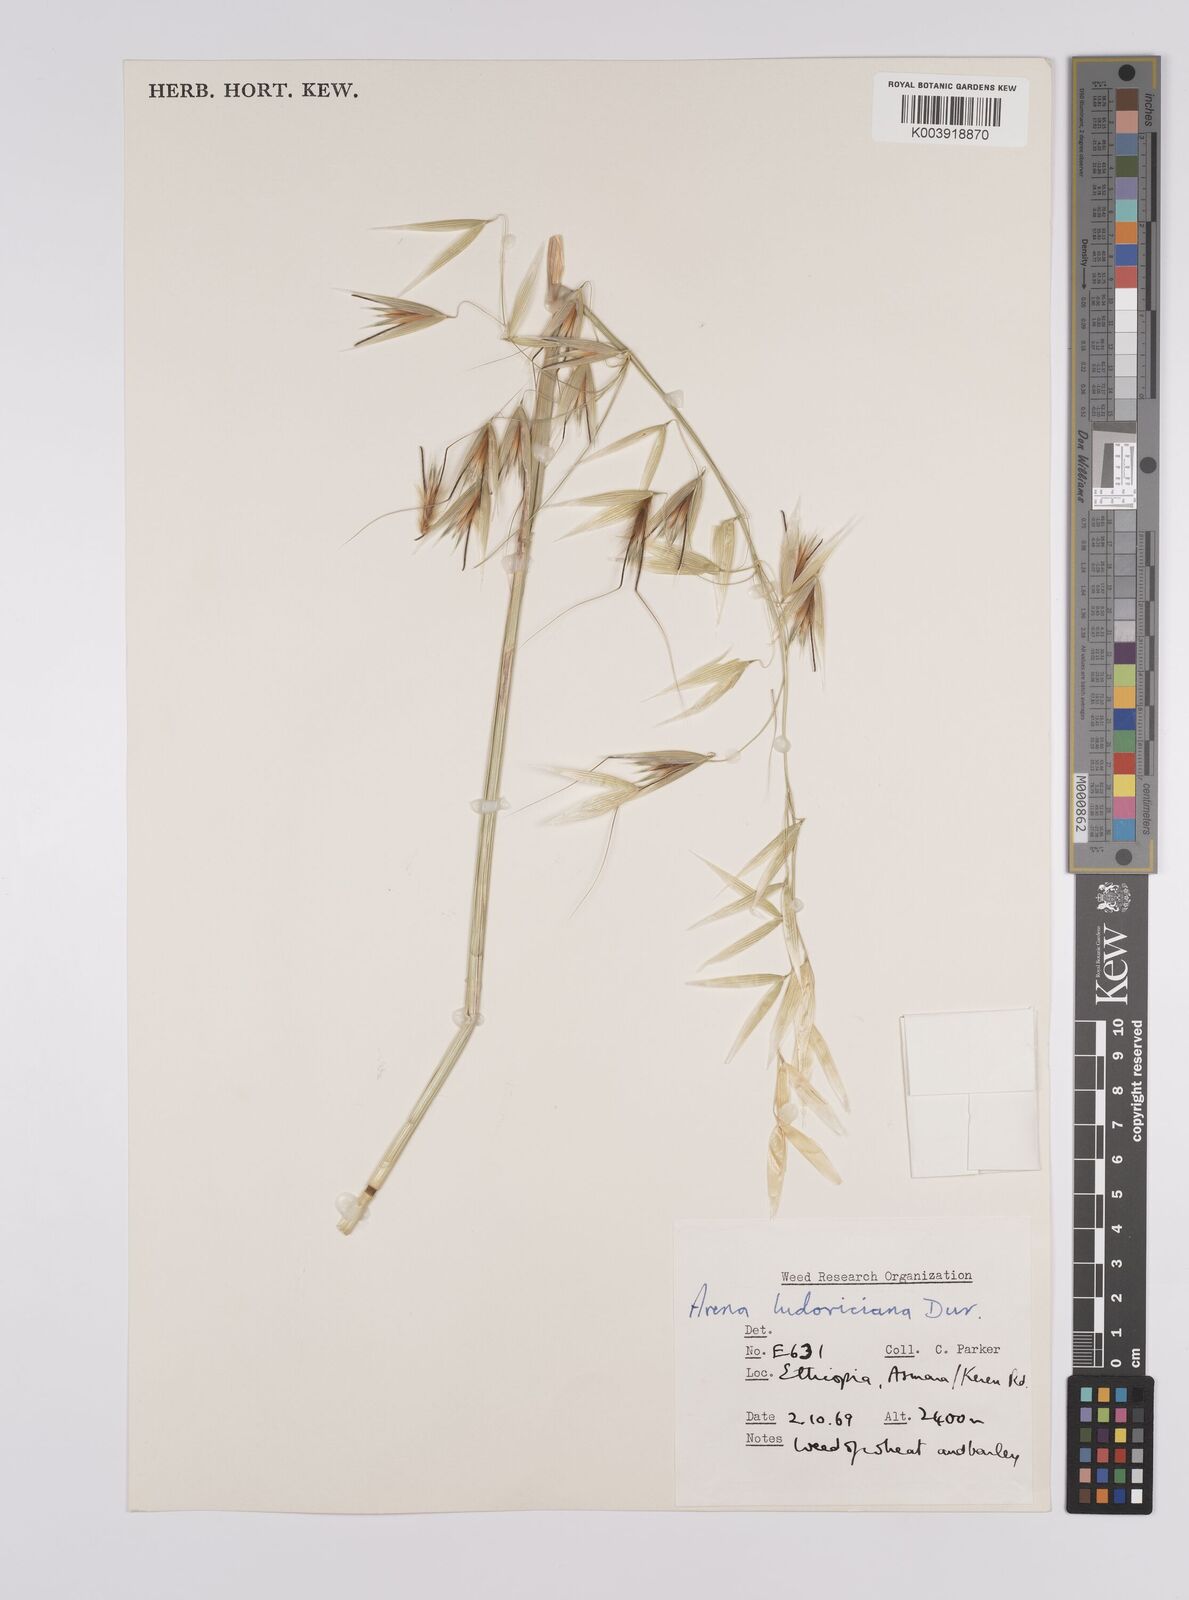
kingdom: Plantae
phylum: Tracheophyta
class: Liliopsida
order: Poales
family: Poaceae
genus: Avena
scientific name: Avena sterilis
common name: Animated oat
